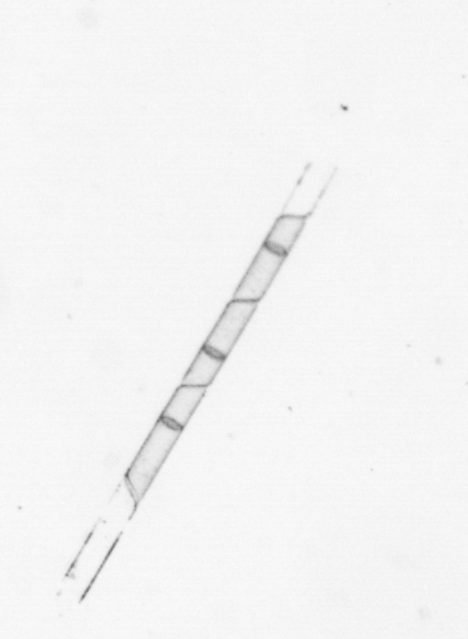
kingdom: Chromista
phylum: Ochrophyta
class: Bacillariophyceae
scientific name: Bacillariophyceae
